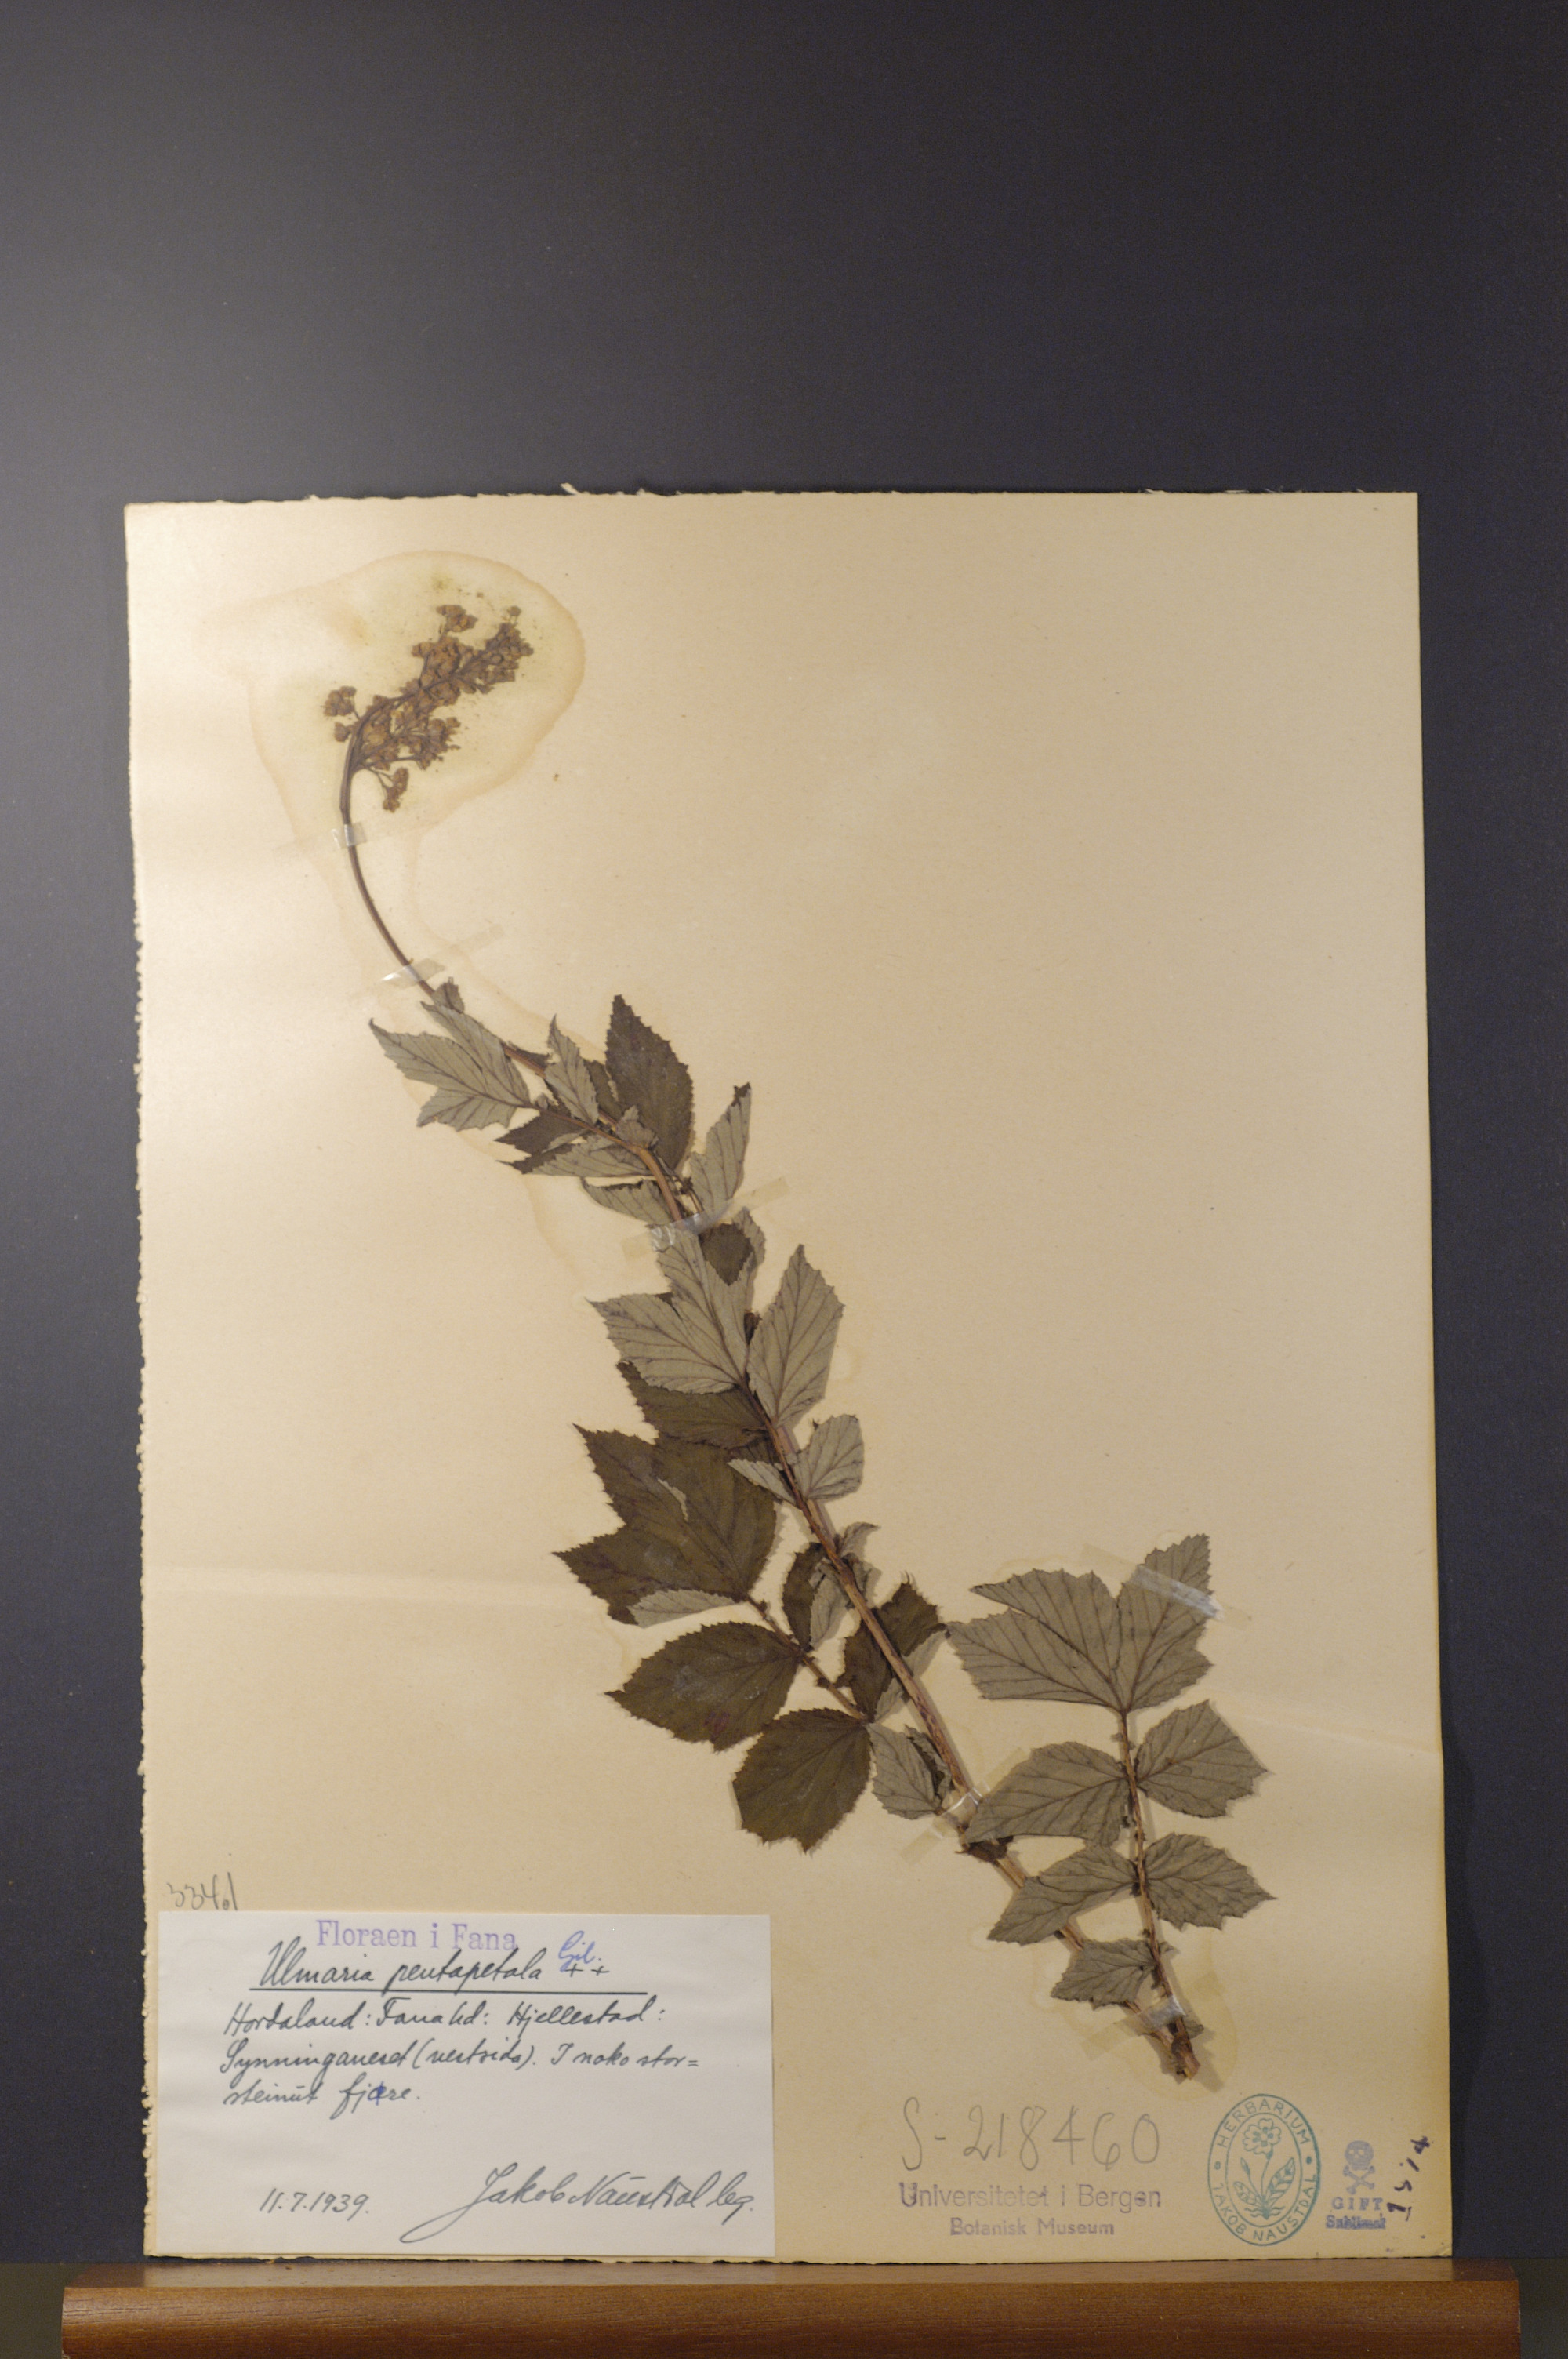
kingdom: Plantae
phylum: Tracheophyta
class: Magnoliopsida
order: Rosales
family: Rosaceae
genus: Filipendula
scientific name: Filipendula ulmaria
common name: Meadowsweet
